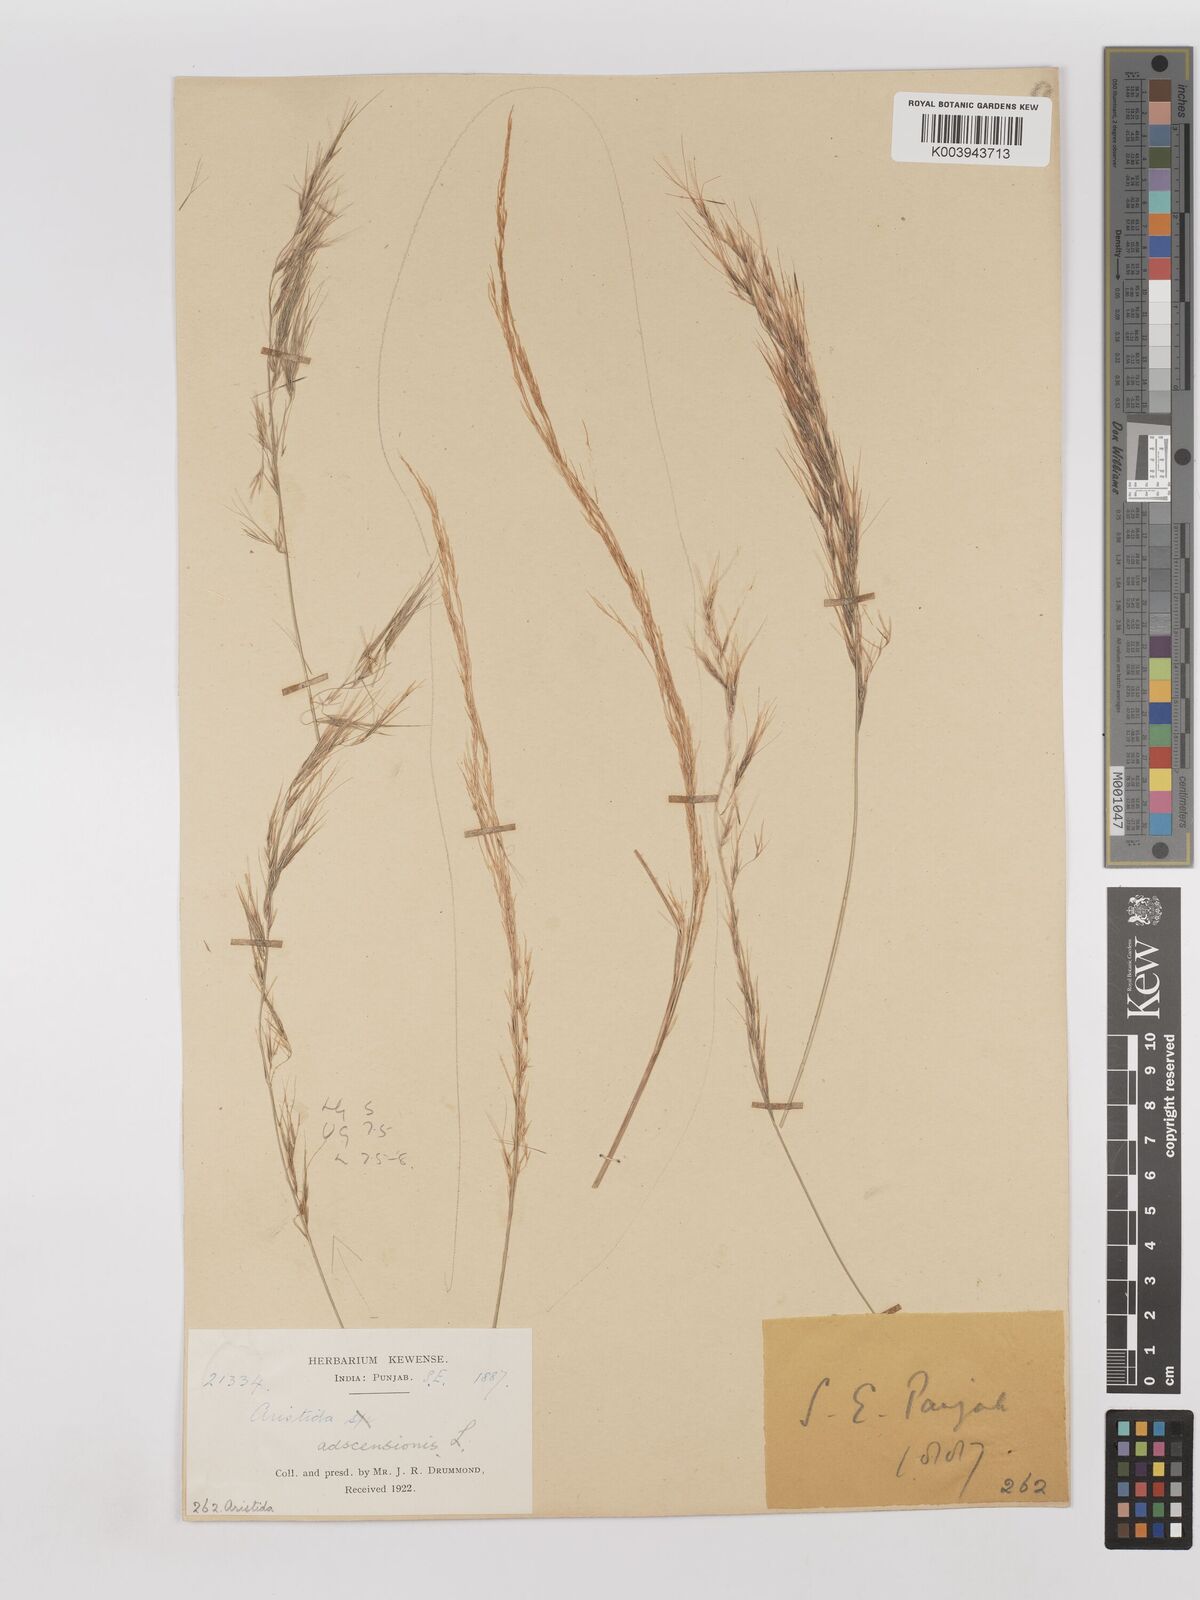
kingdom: Plantae
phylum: Tracheophyta
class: Liliopsida
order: Poales
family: Poaceae
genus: Aristida
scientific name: Aristida adscensionis
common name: Sixweeks threeawn
